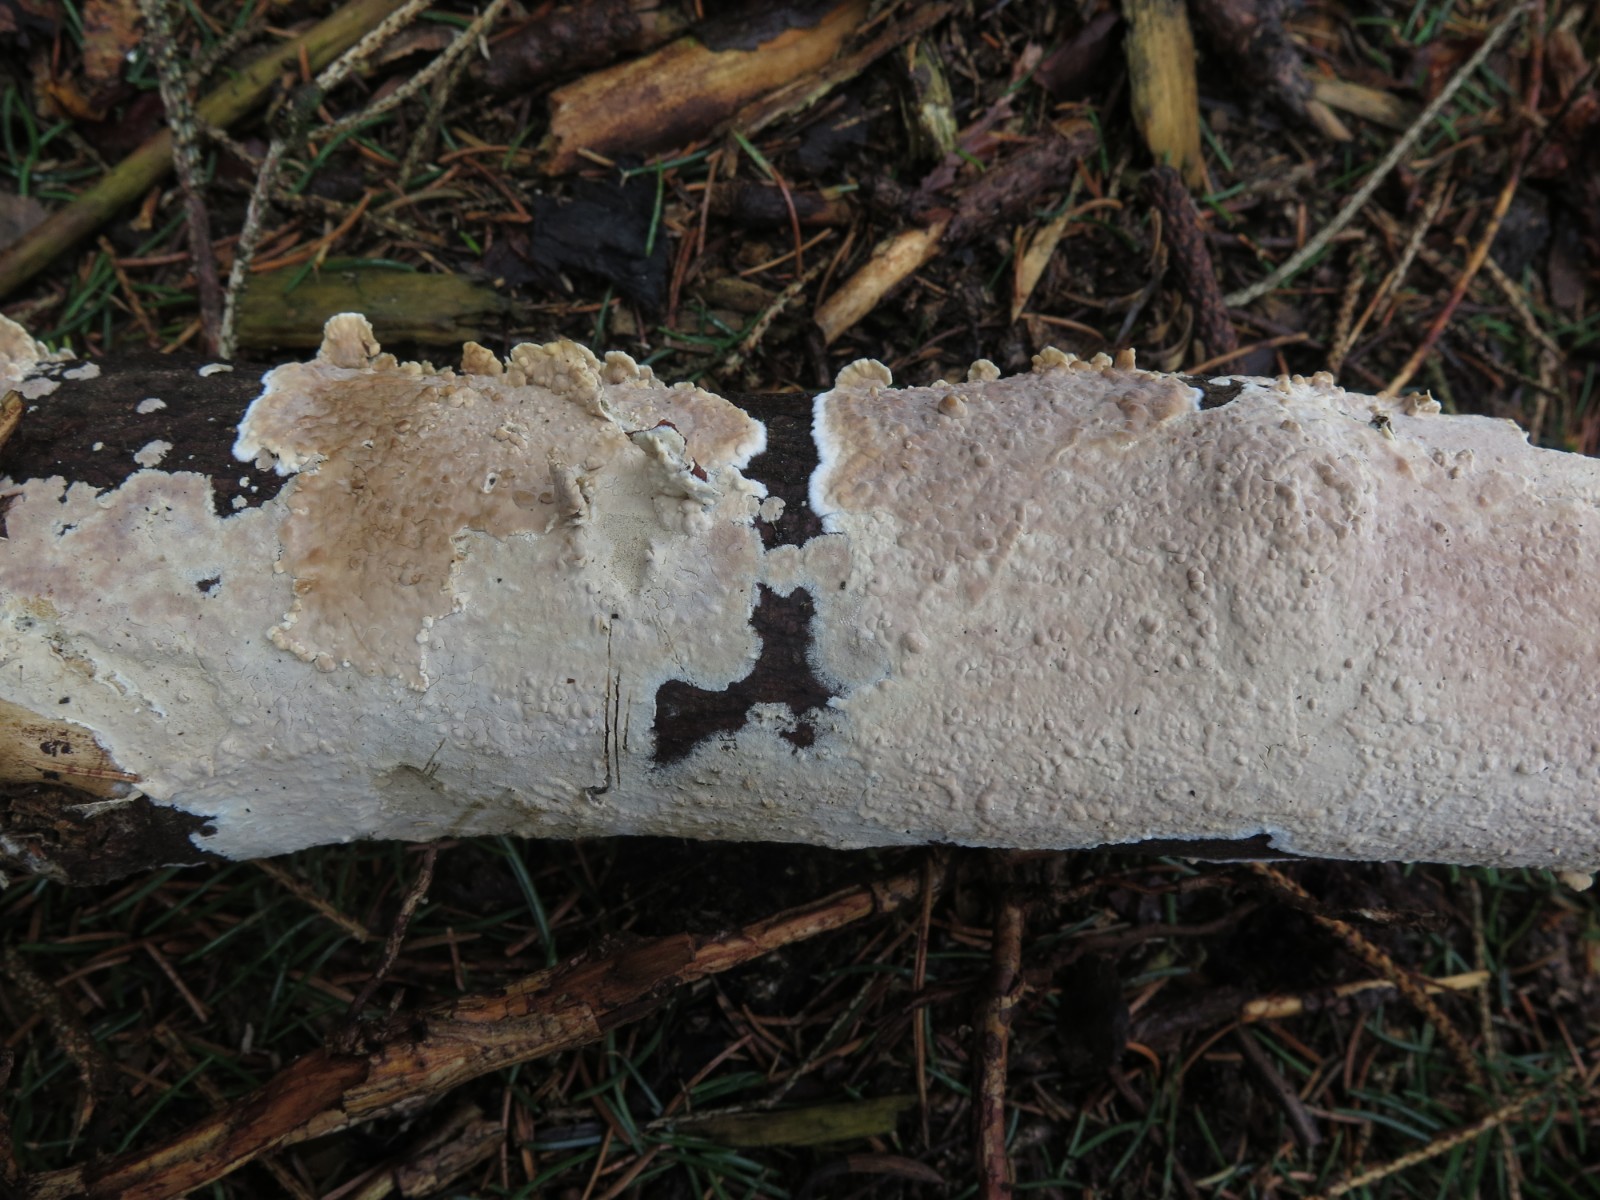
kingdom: Fungi
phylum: Basidiomycota
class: Agaricomycetes
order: Agaricales
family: Physalacriaceae
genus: Cylindrobasidium
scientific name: Cylindrobasidium evolvens
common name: sprækkehinde
